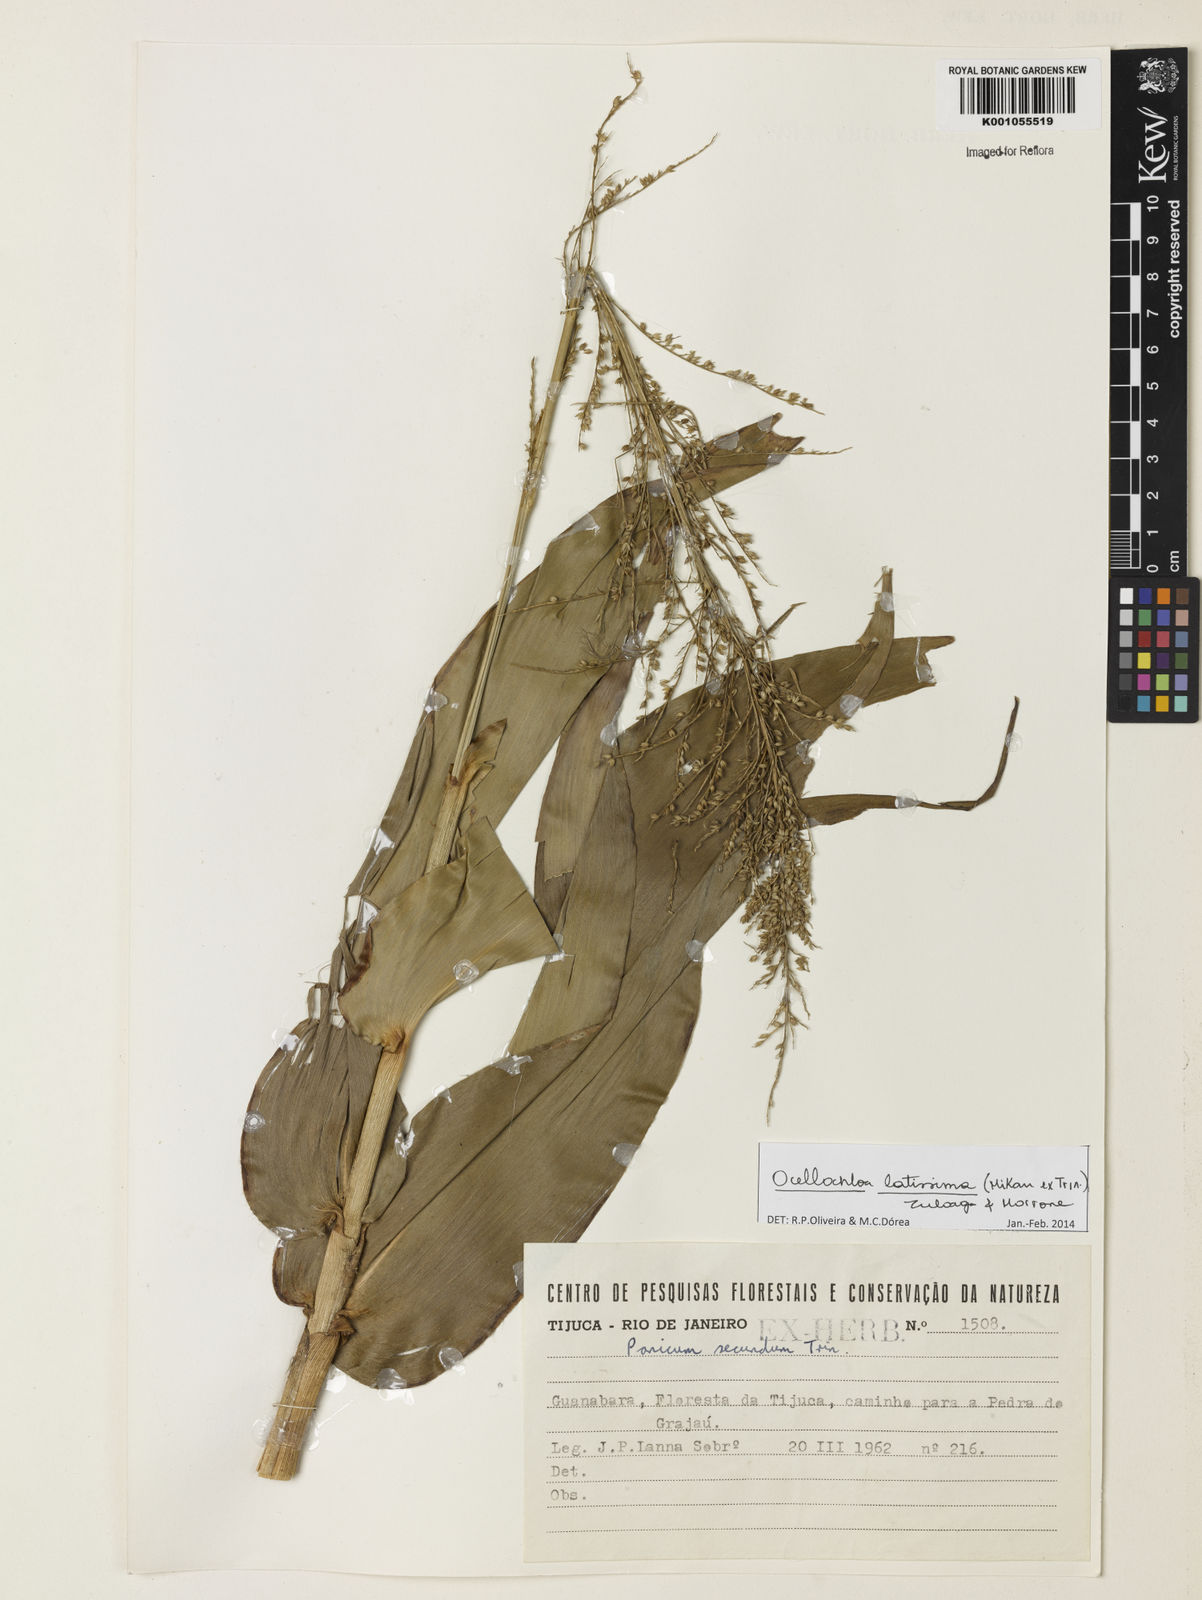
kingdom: Plantae
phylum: Tracheophyta
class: Liliopsida
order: Poales
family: Poaceae
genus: Ocellochloa
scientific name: Ocellochloa latissima
